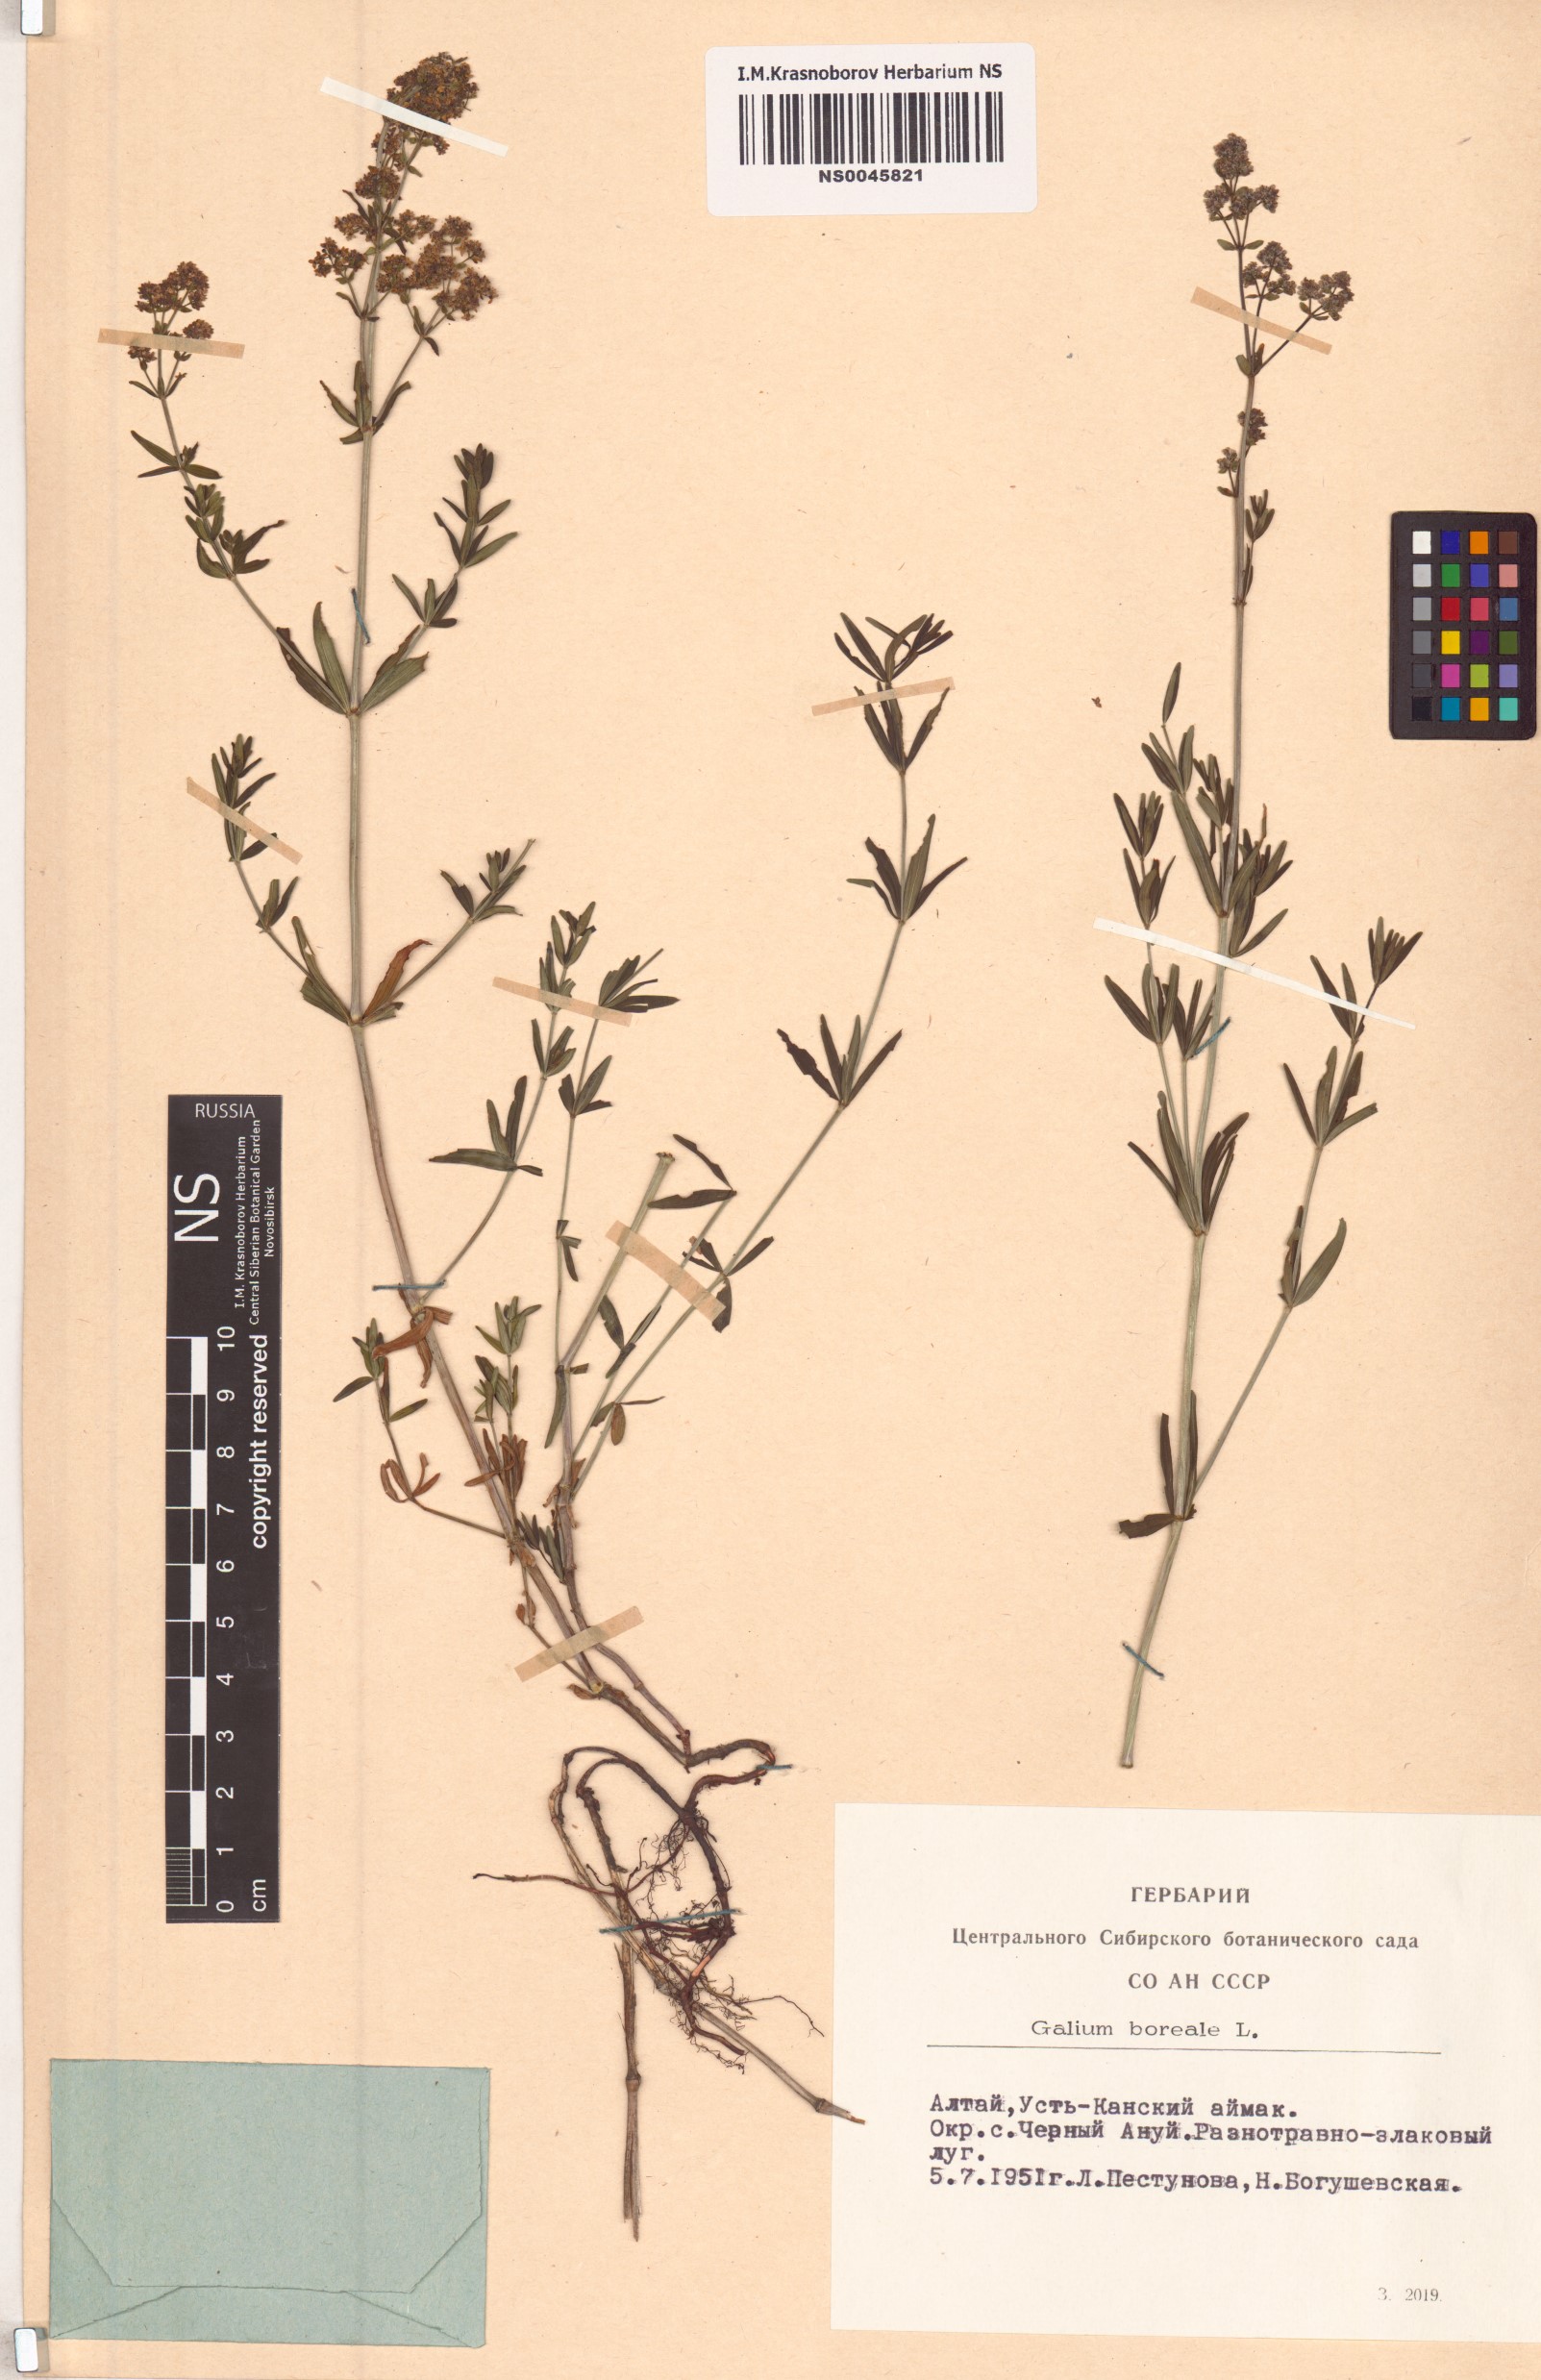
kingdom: Plantae
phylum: Tracheophyta
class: Magnoliopsida
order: Gentianales
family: Rubiaceae
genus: Galium
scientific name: Galium boreale
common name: Northern bedstraw
